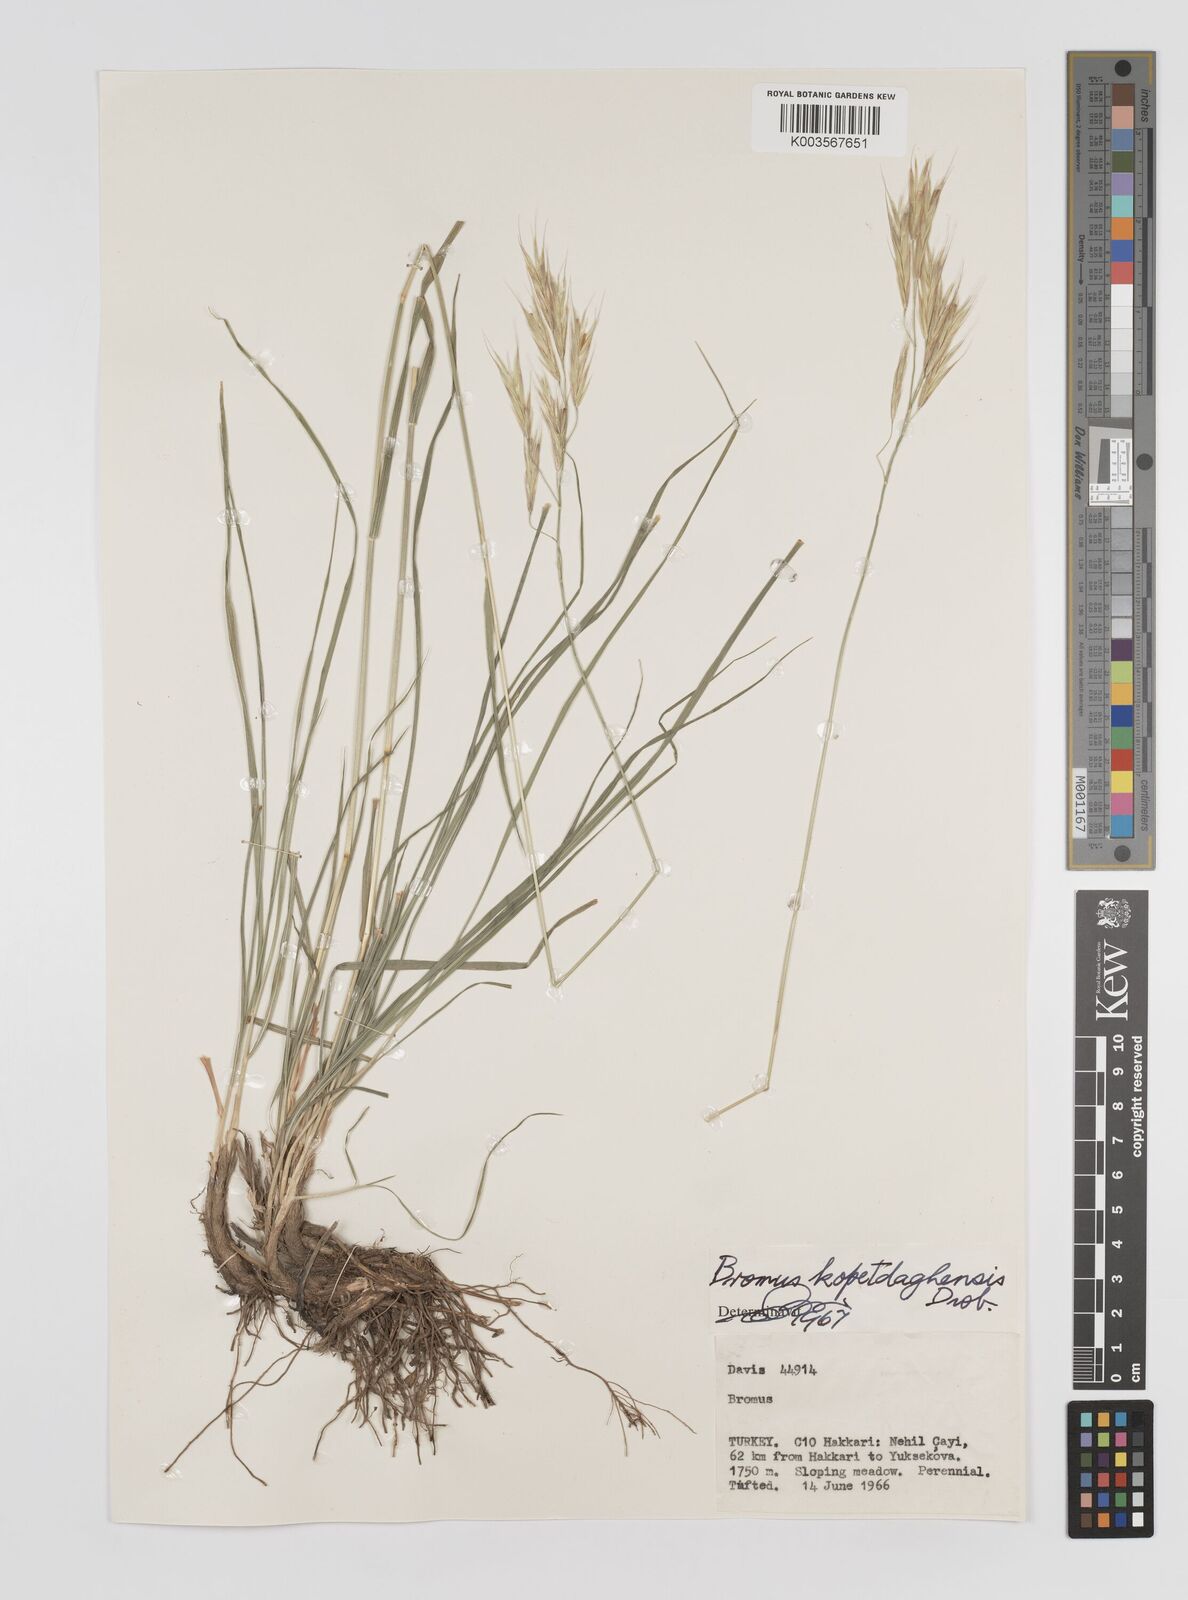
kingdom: Plantae
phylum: Tracheophyta
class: Liliopsida
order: Poales
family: Poaceae
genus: Bromus
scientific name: Bromus kopetdagensis
